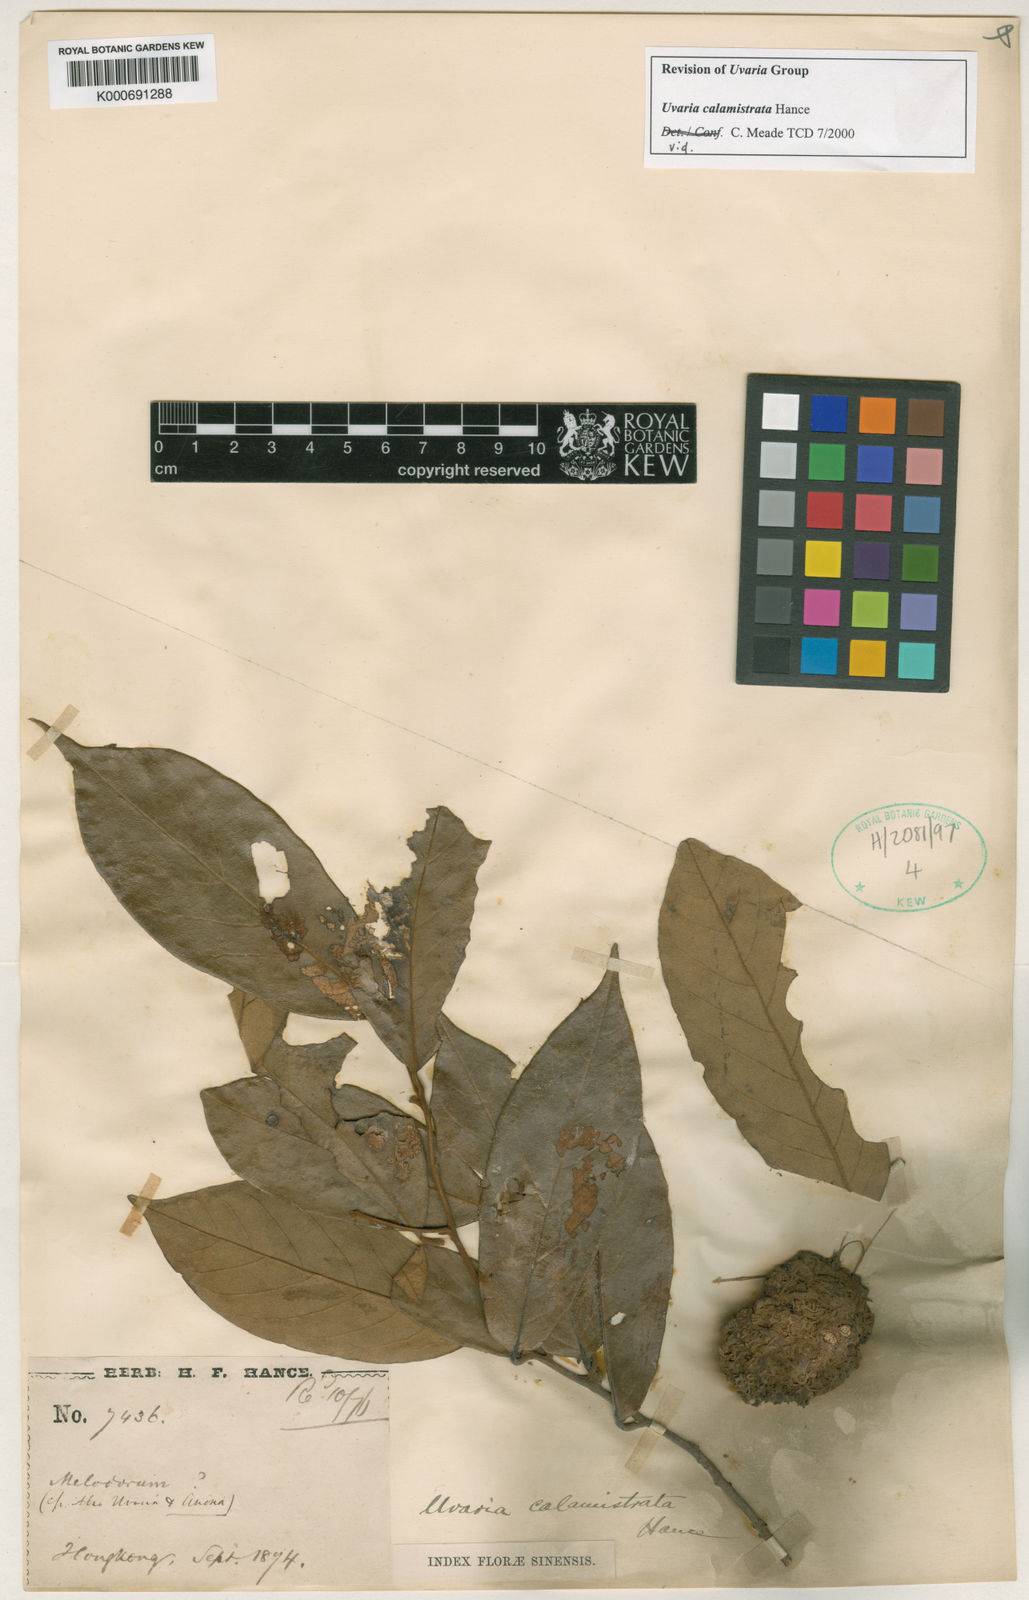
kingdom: Plantae
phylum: Tracheophyta
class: Magnoliopsida
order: Magnoliales
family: Annonaceae
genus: Uvaria
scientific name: Uvaria calamistrata
